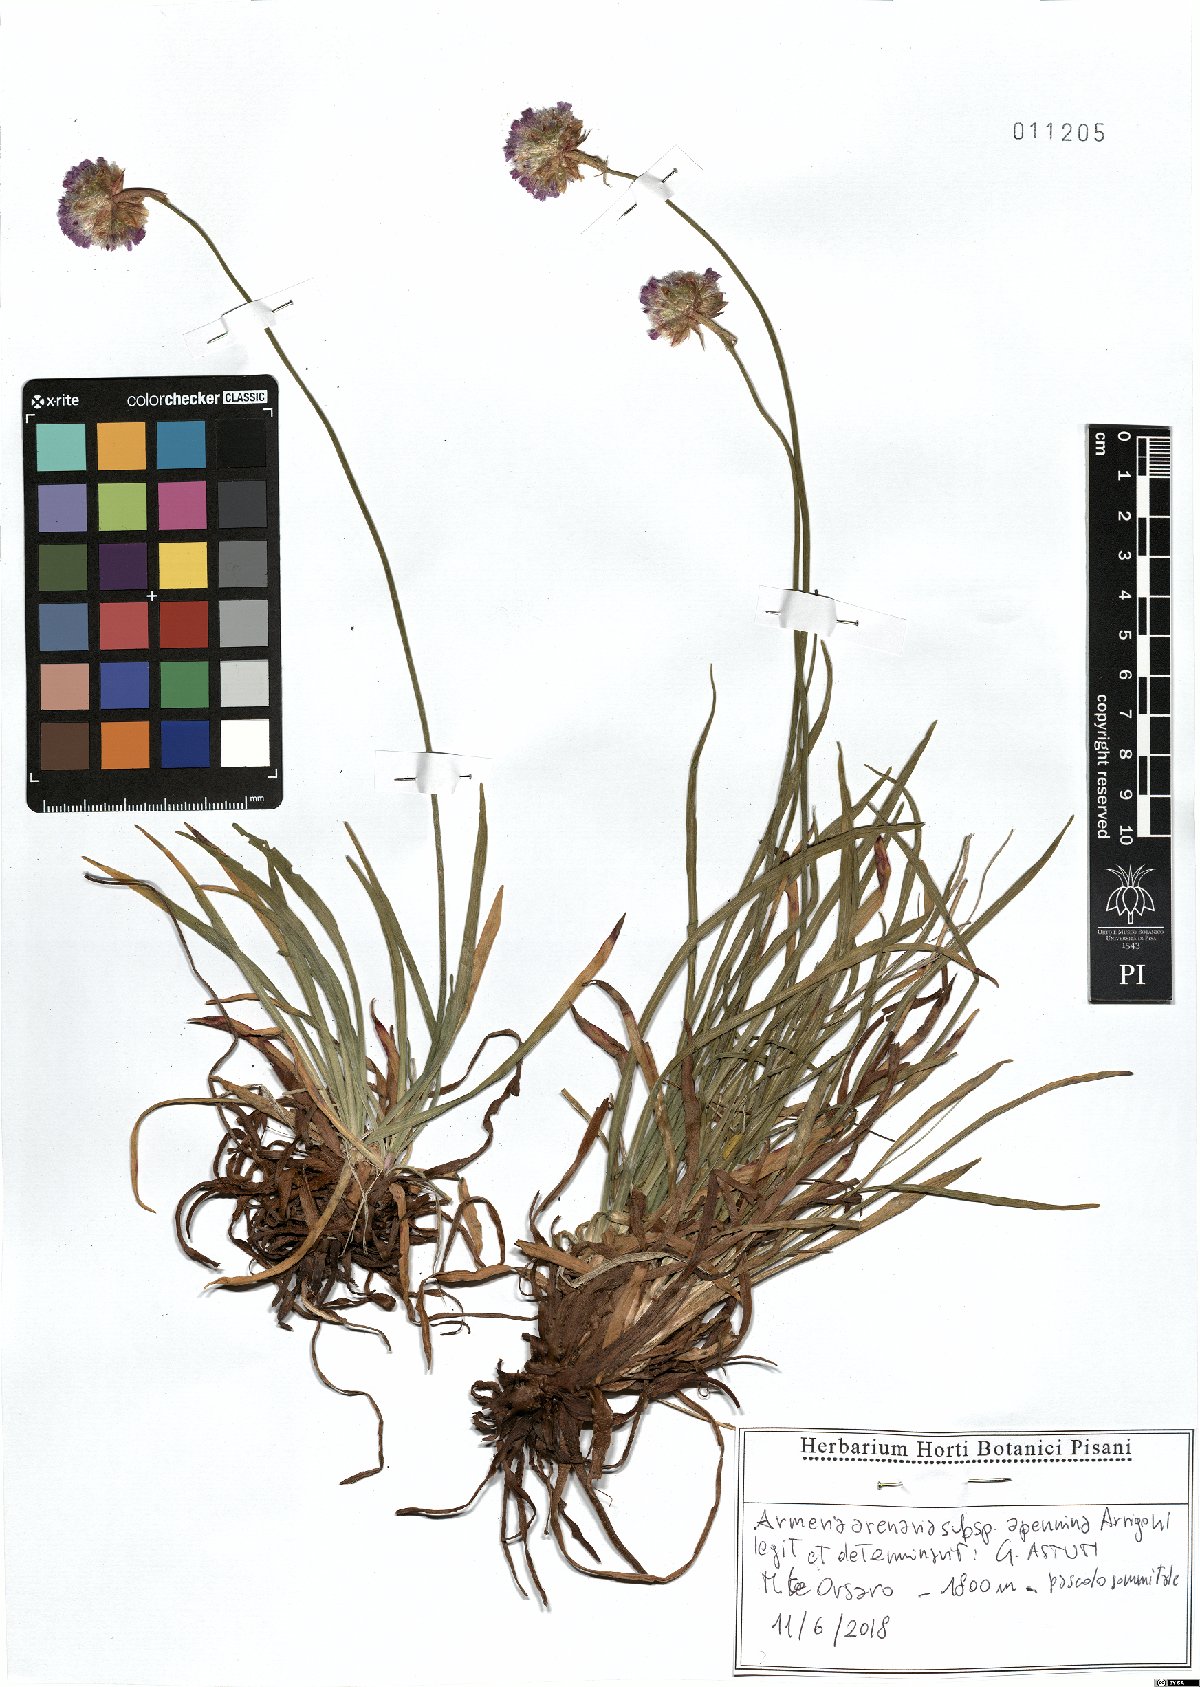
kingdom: Plantae
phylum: Tracheophyta
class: Magnoliopsida
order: Caryophyllales
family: Plumbaginaceae
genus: Armeria
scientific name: Armeria arenaria
